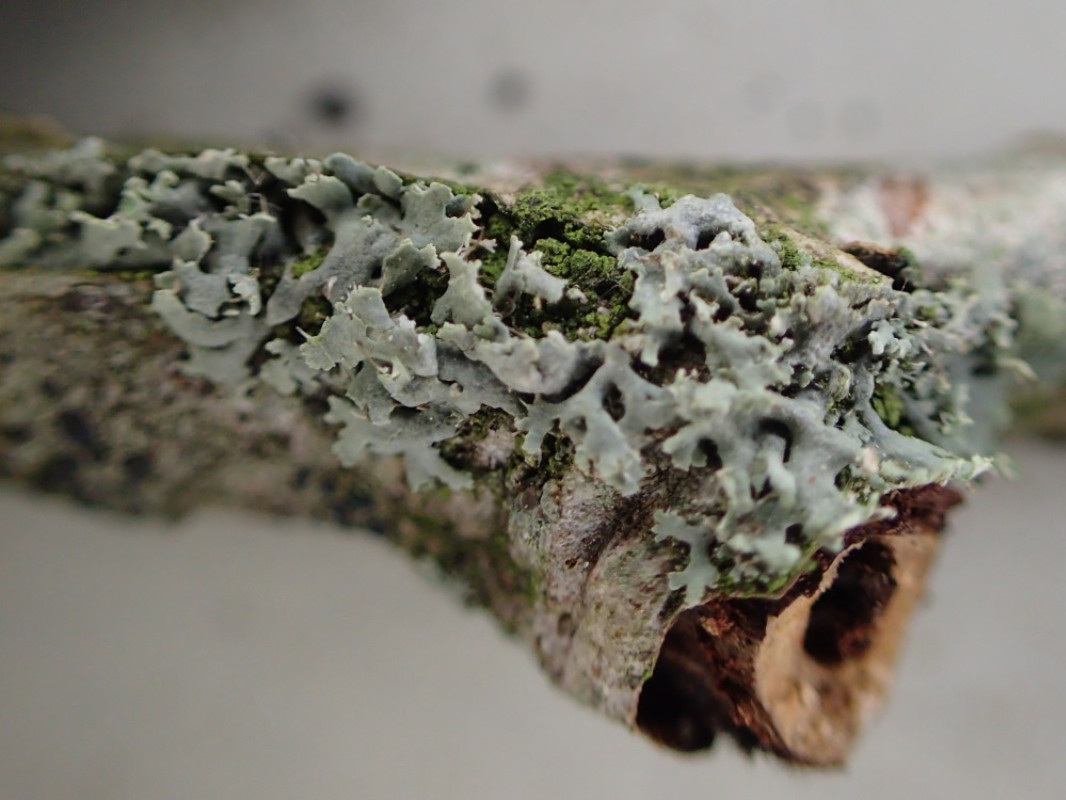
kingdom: Fungi
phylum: Ascomycota
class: Lecanoromycetes
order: Caliciales
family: Physciaceae
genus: Physcia
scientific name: Physcia tenella
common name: spæd rosetlav
